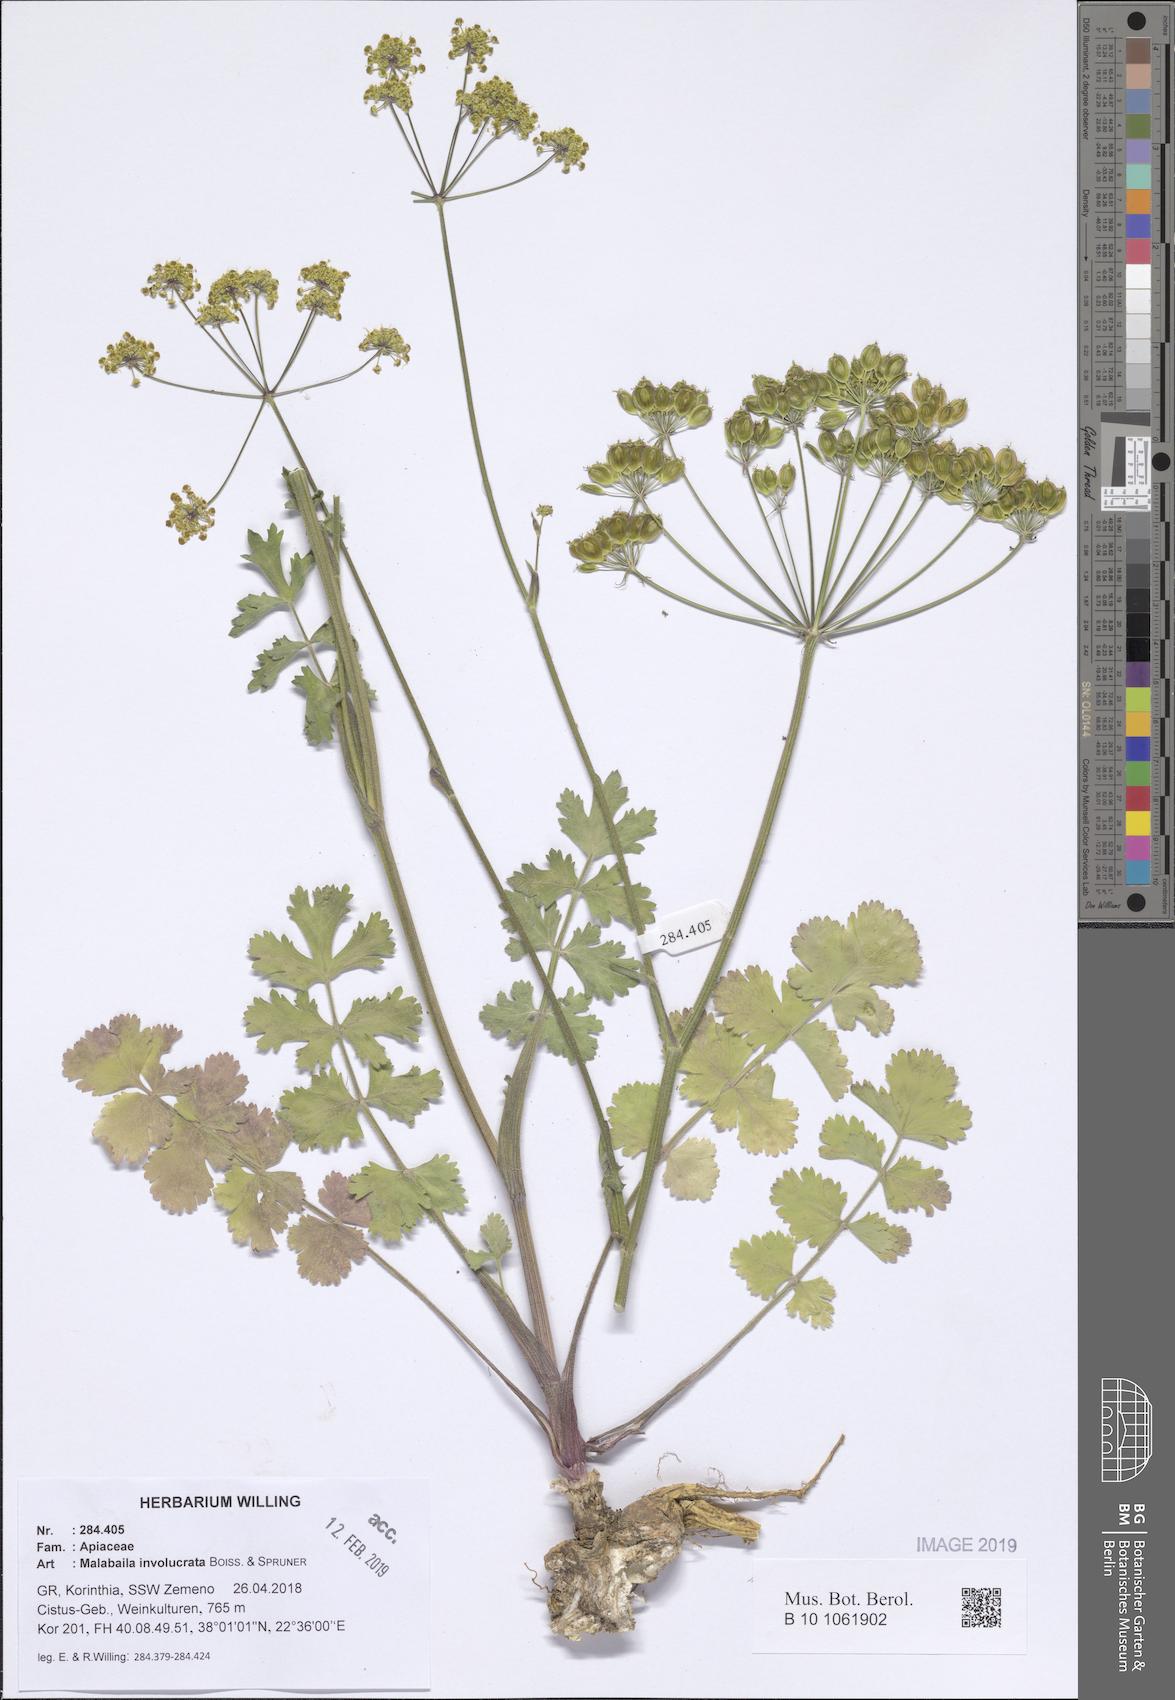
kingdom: Plantae
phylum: Tracheophyta
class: Magnoliopsida
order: Apiales
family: Apiaceae
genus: Leiotulus
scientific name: Leiotulus involucratus
